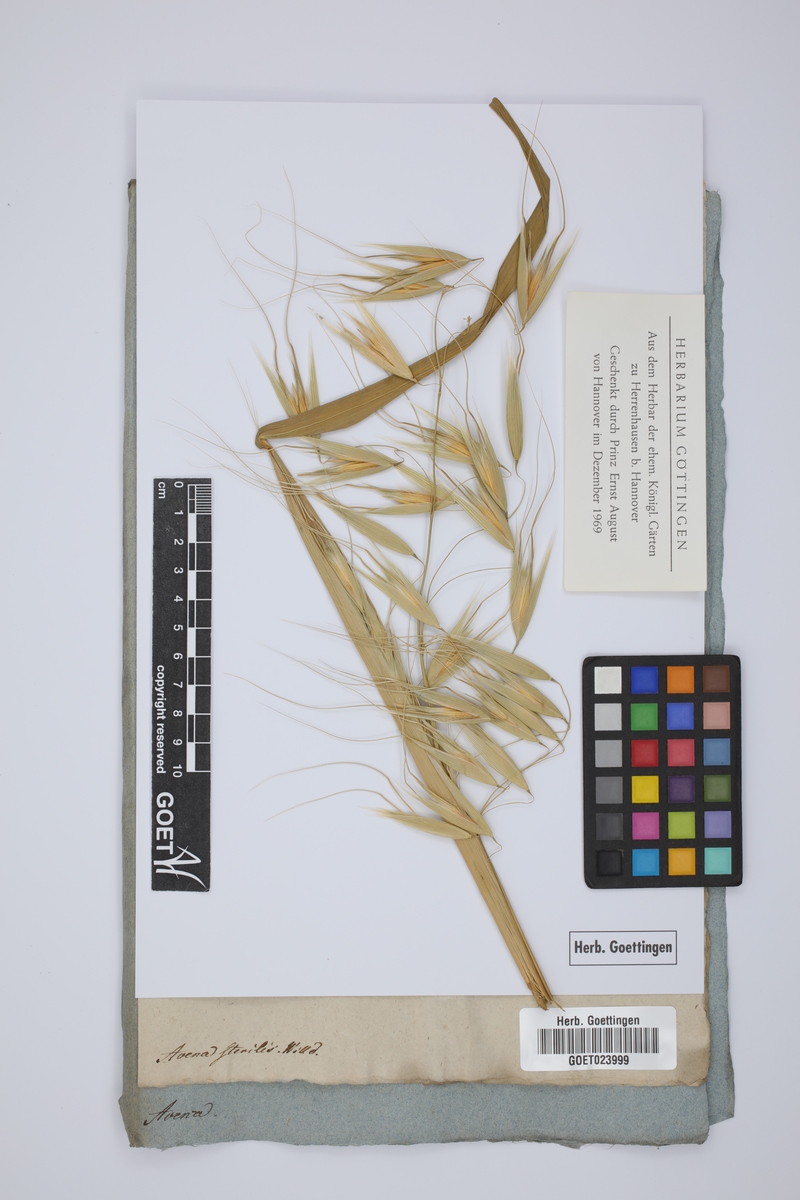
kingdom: Plantae
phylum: Tracheophyta
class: Liliopsida
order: Poales
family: Poaceae
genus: Avena
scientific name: Avena sterilis
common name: Animated oat
